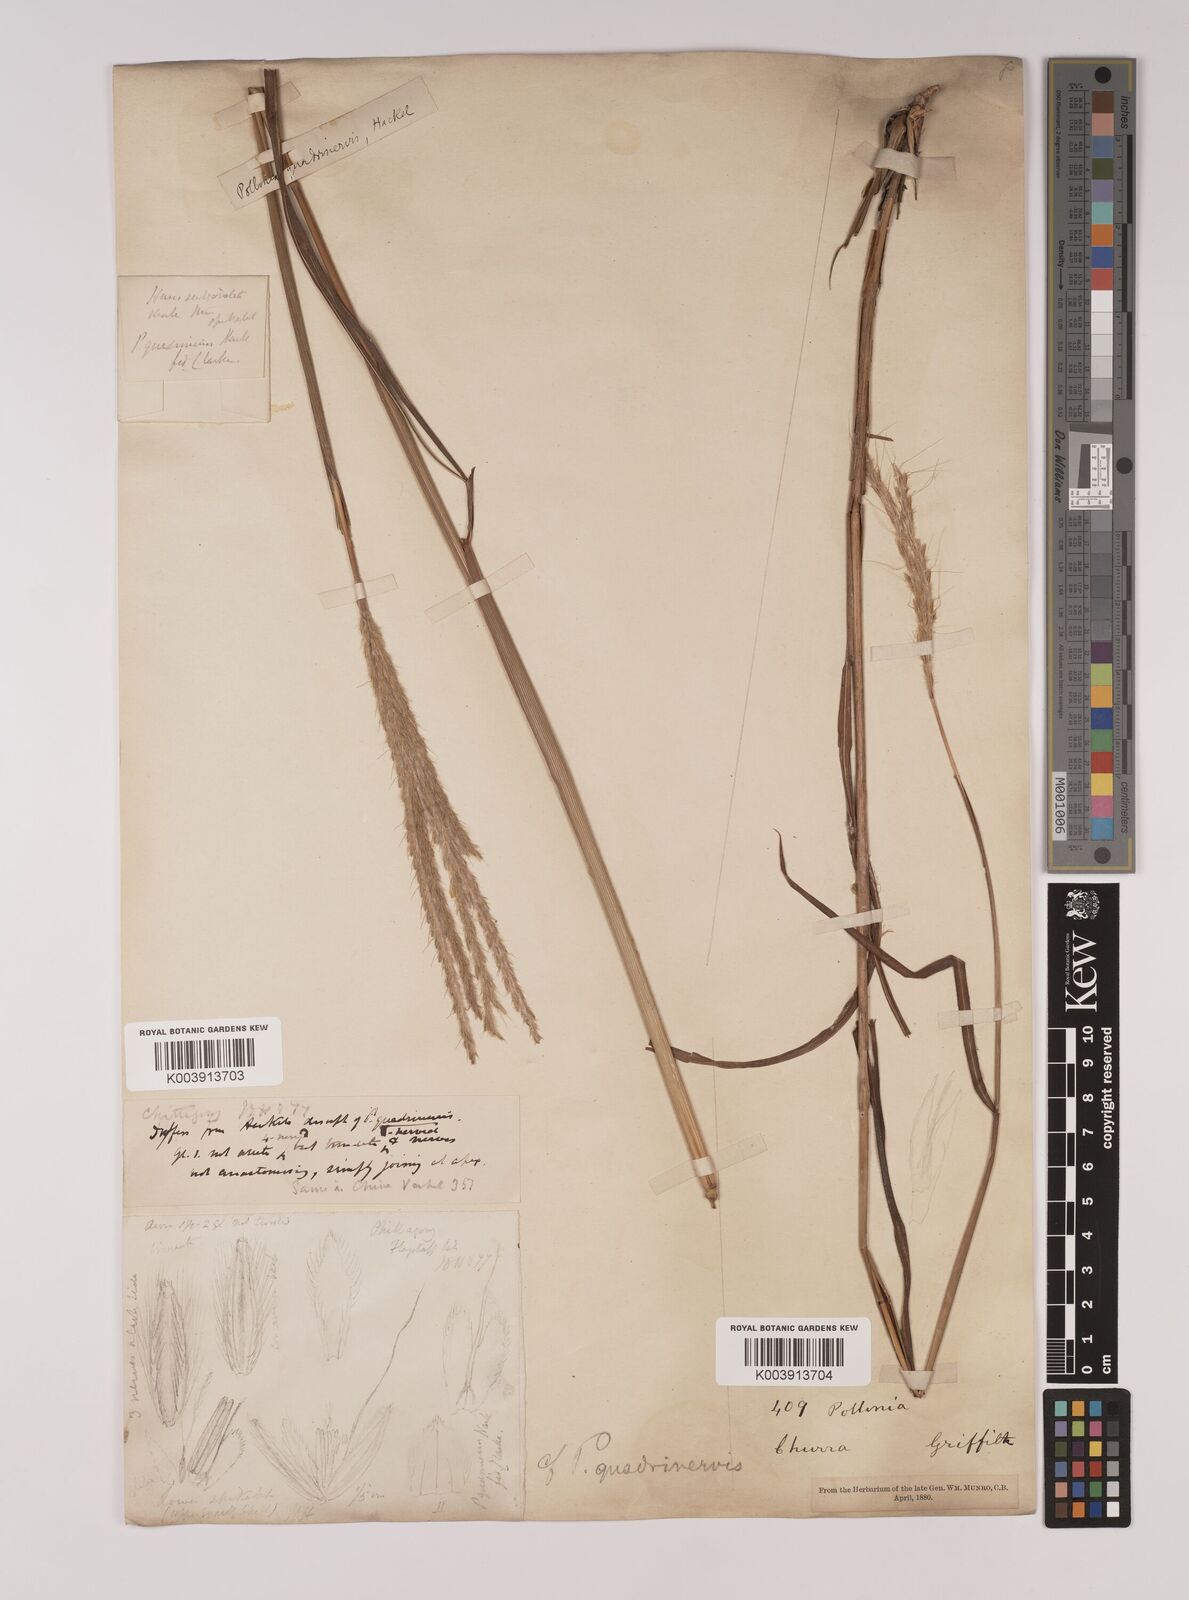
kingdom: Plantae
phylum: Tracheophyta
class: Liliopsida
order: Poales
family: Poaceae
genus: Pseudopogonatherum
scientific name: Pseudopogonatherum quadrinerve
